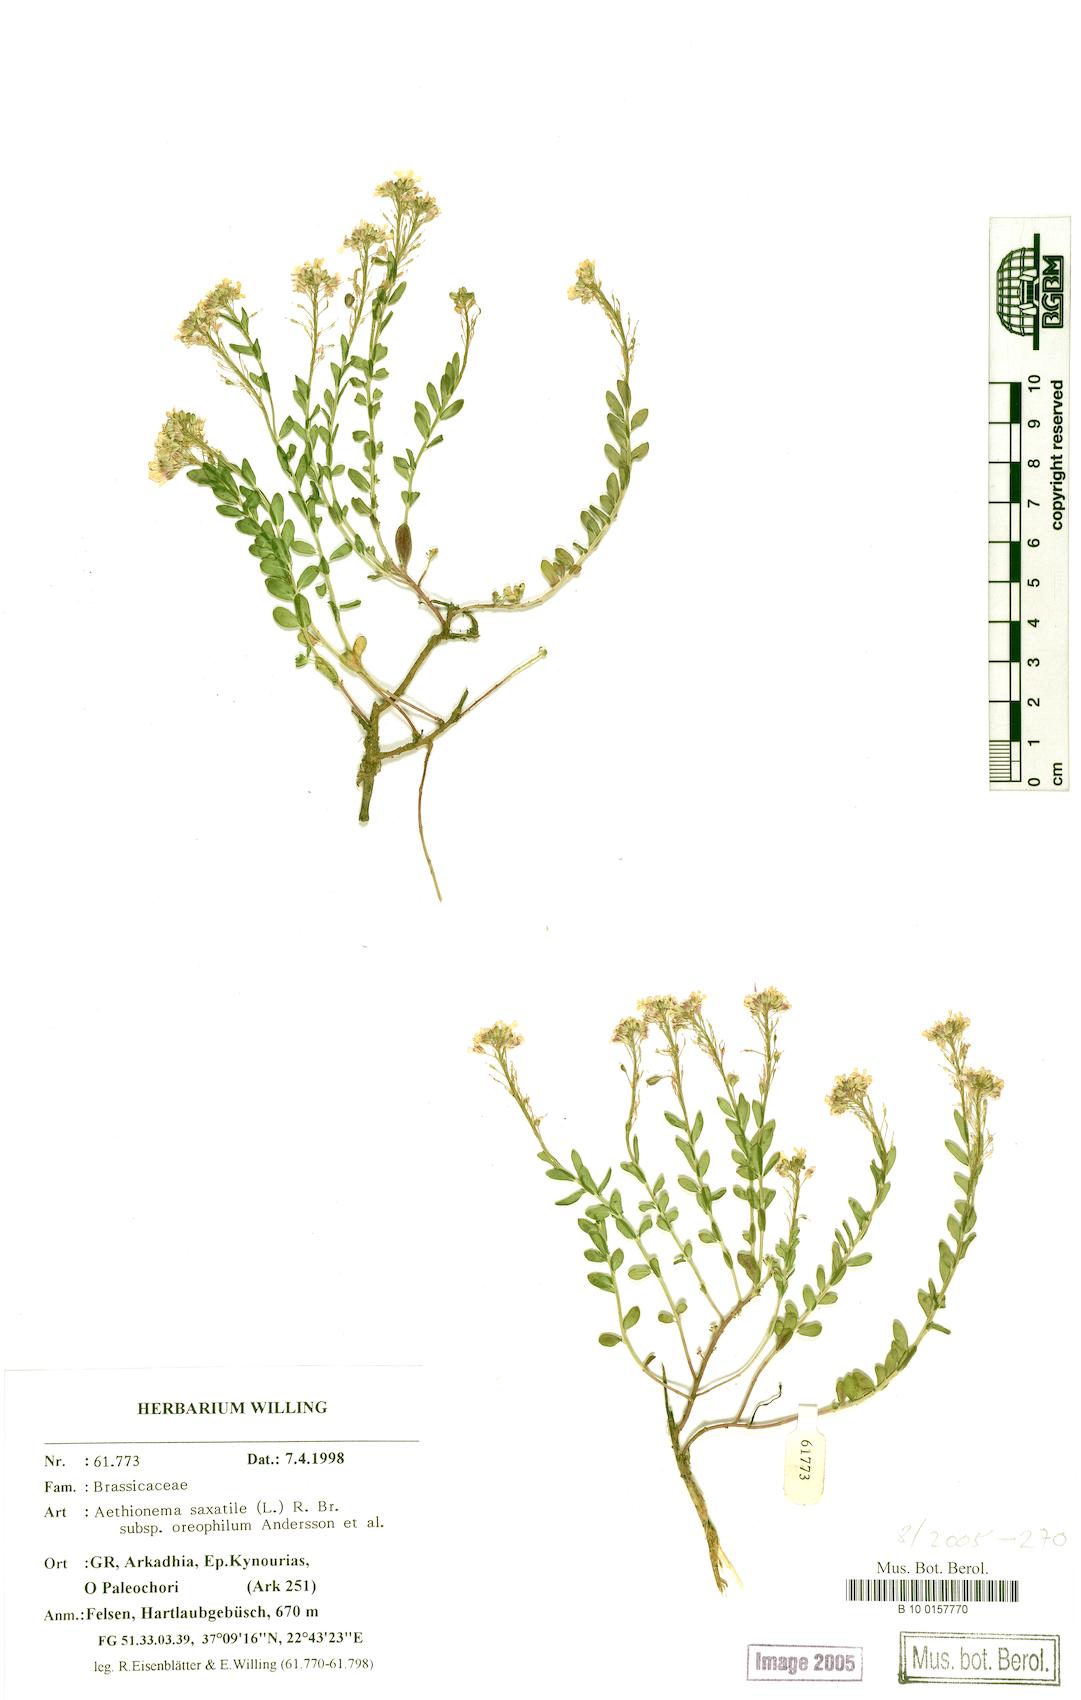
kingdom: Plantae
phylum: Tracheophyta
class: Magnoliopsida
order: Brassicales
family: Brassicaceae
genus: Aethionema
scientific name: Aethionema saxatile
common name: Burnt candytuft
